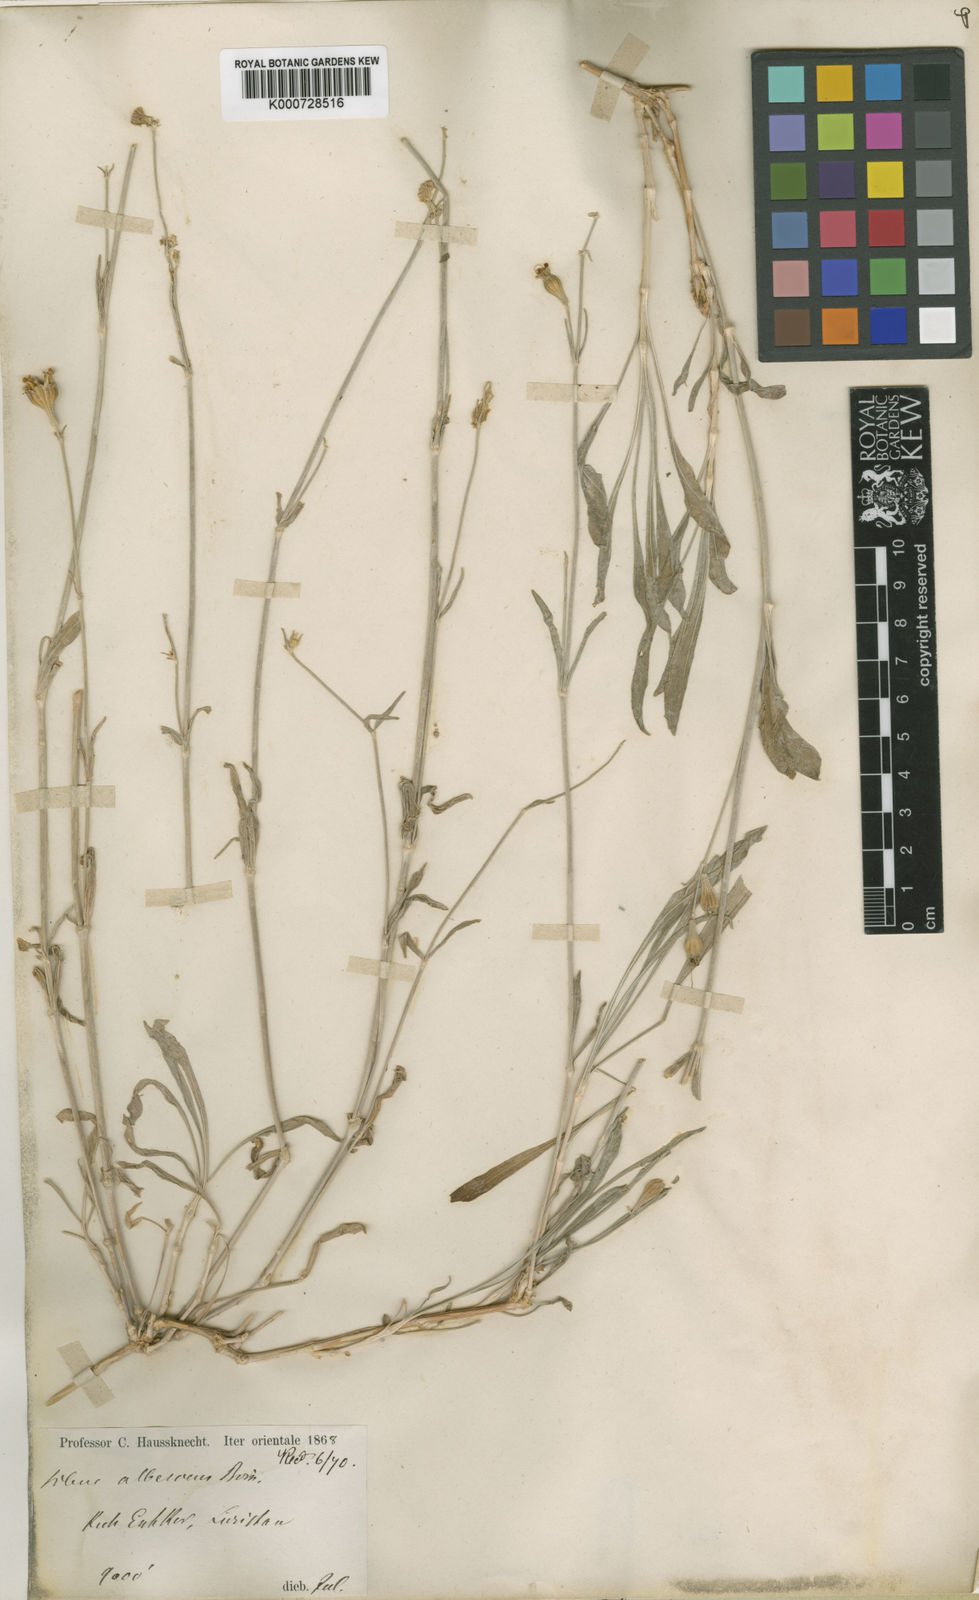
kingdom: Plantae
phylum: Tracheophyta
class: Magnoliopsida
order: Caryophyllales
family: Caryophyllaceae
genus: Silene
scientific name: Silene albescens
